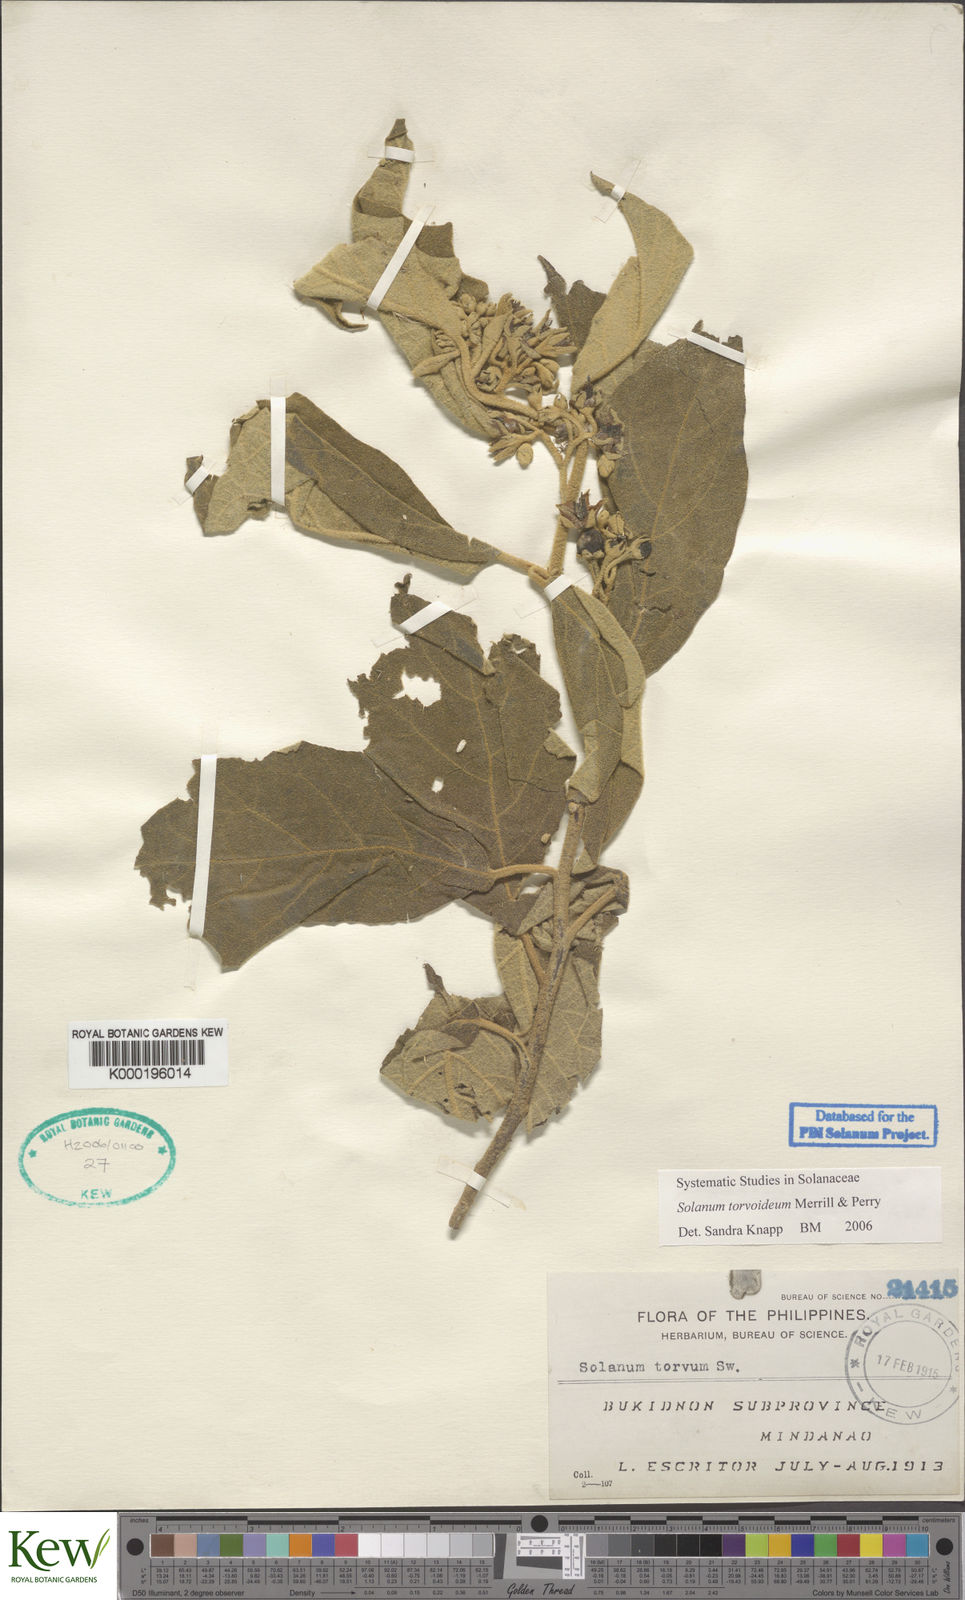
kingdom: Plantae
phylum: Tracheophyta
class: Magnoliopsida
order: Solanales
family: Solanaceae
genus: Solanum
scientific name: Solanum torvoideum
